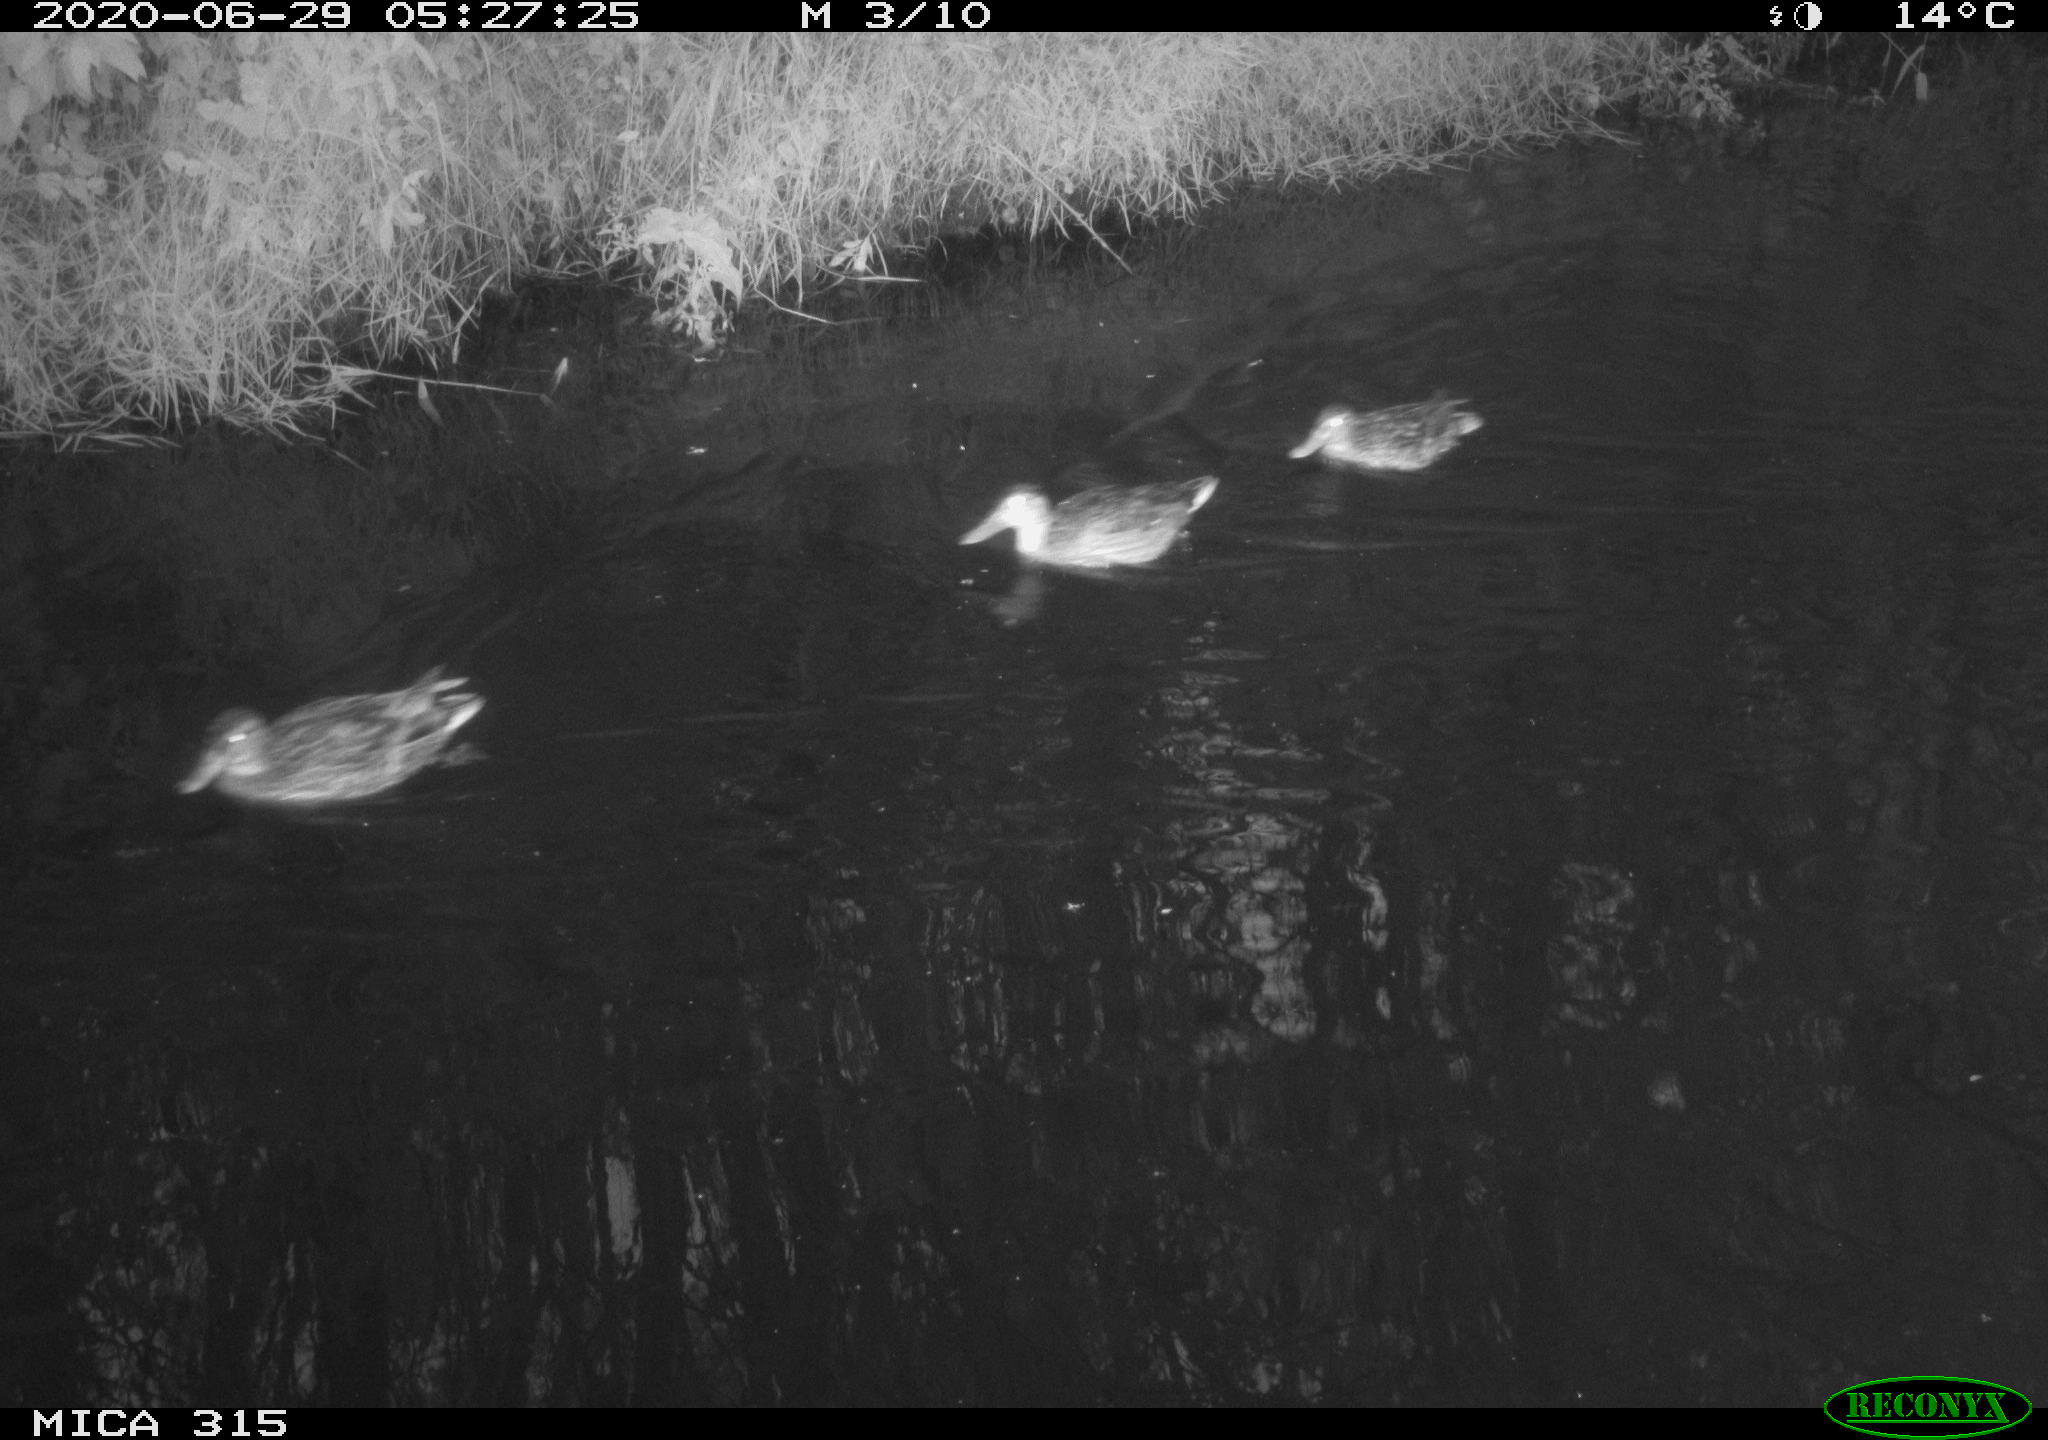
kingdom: Animalia
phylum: Chordata
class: Aves
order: Anseriformes
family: Anatidae
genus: Anas
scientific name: Anas platyrhynchos
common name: Mallard
